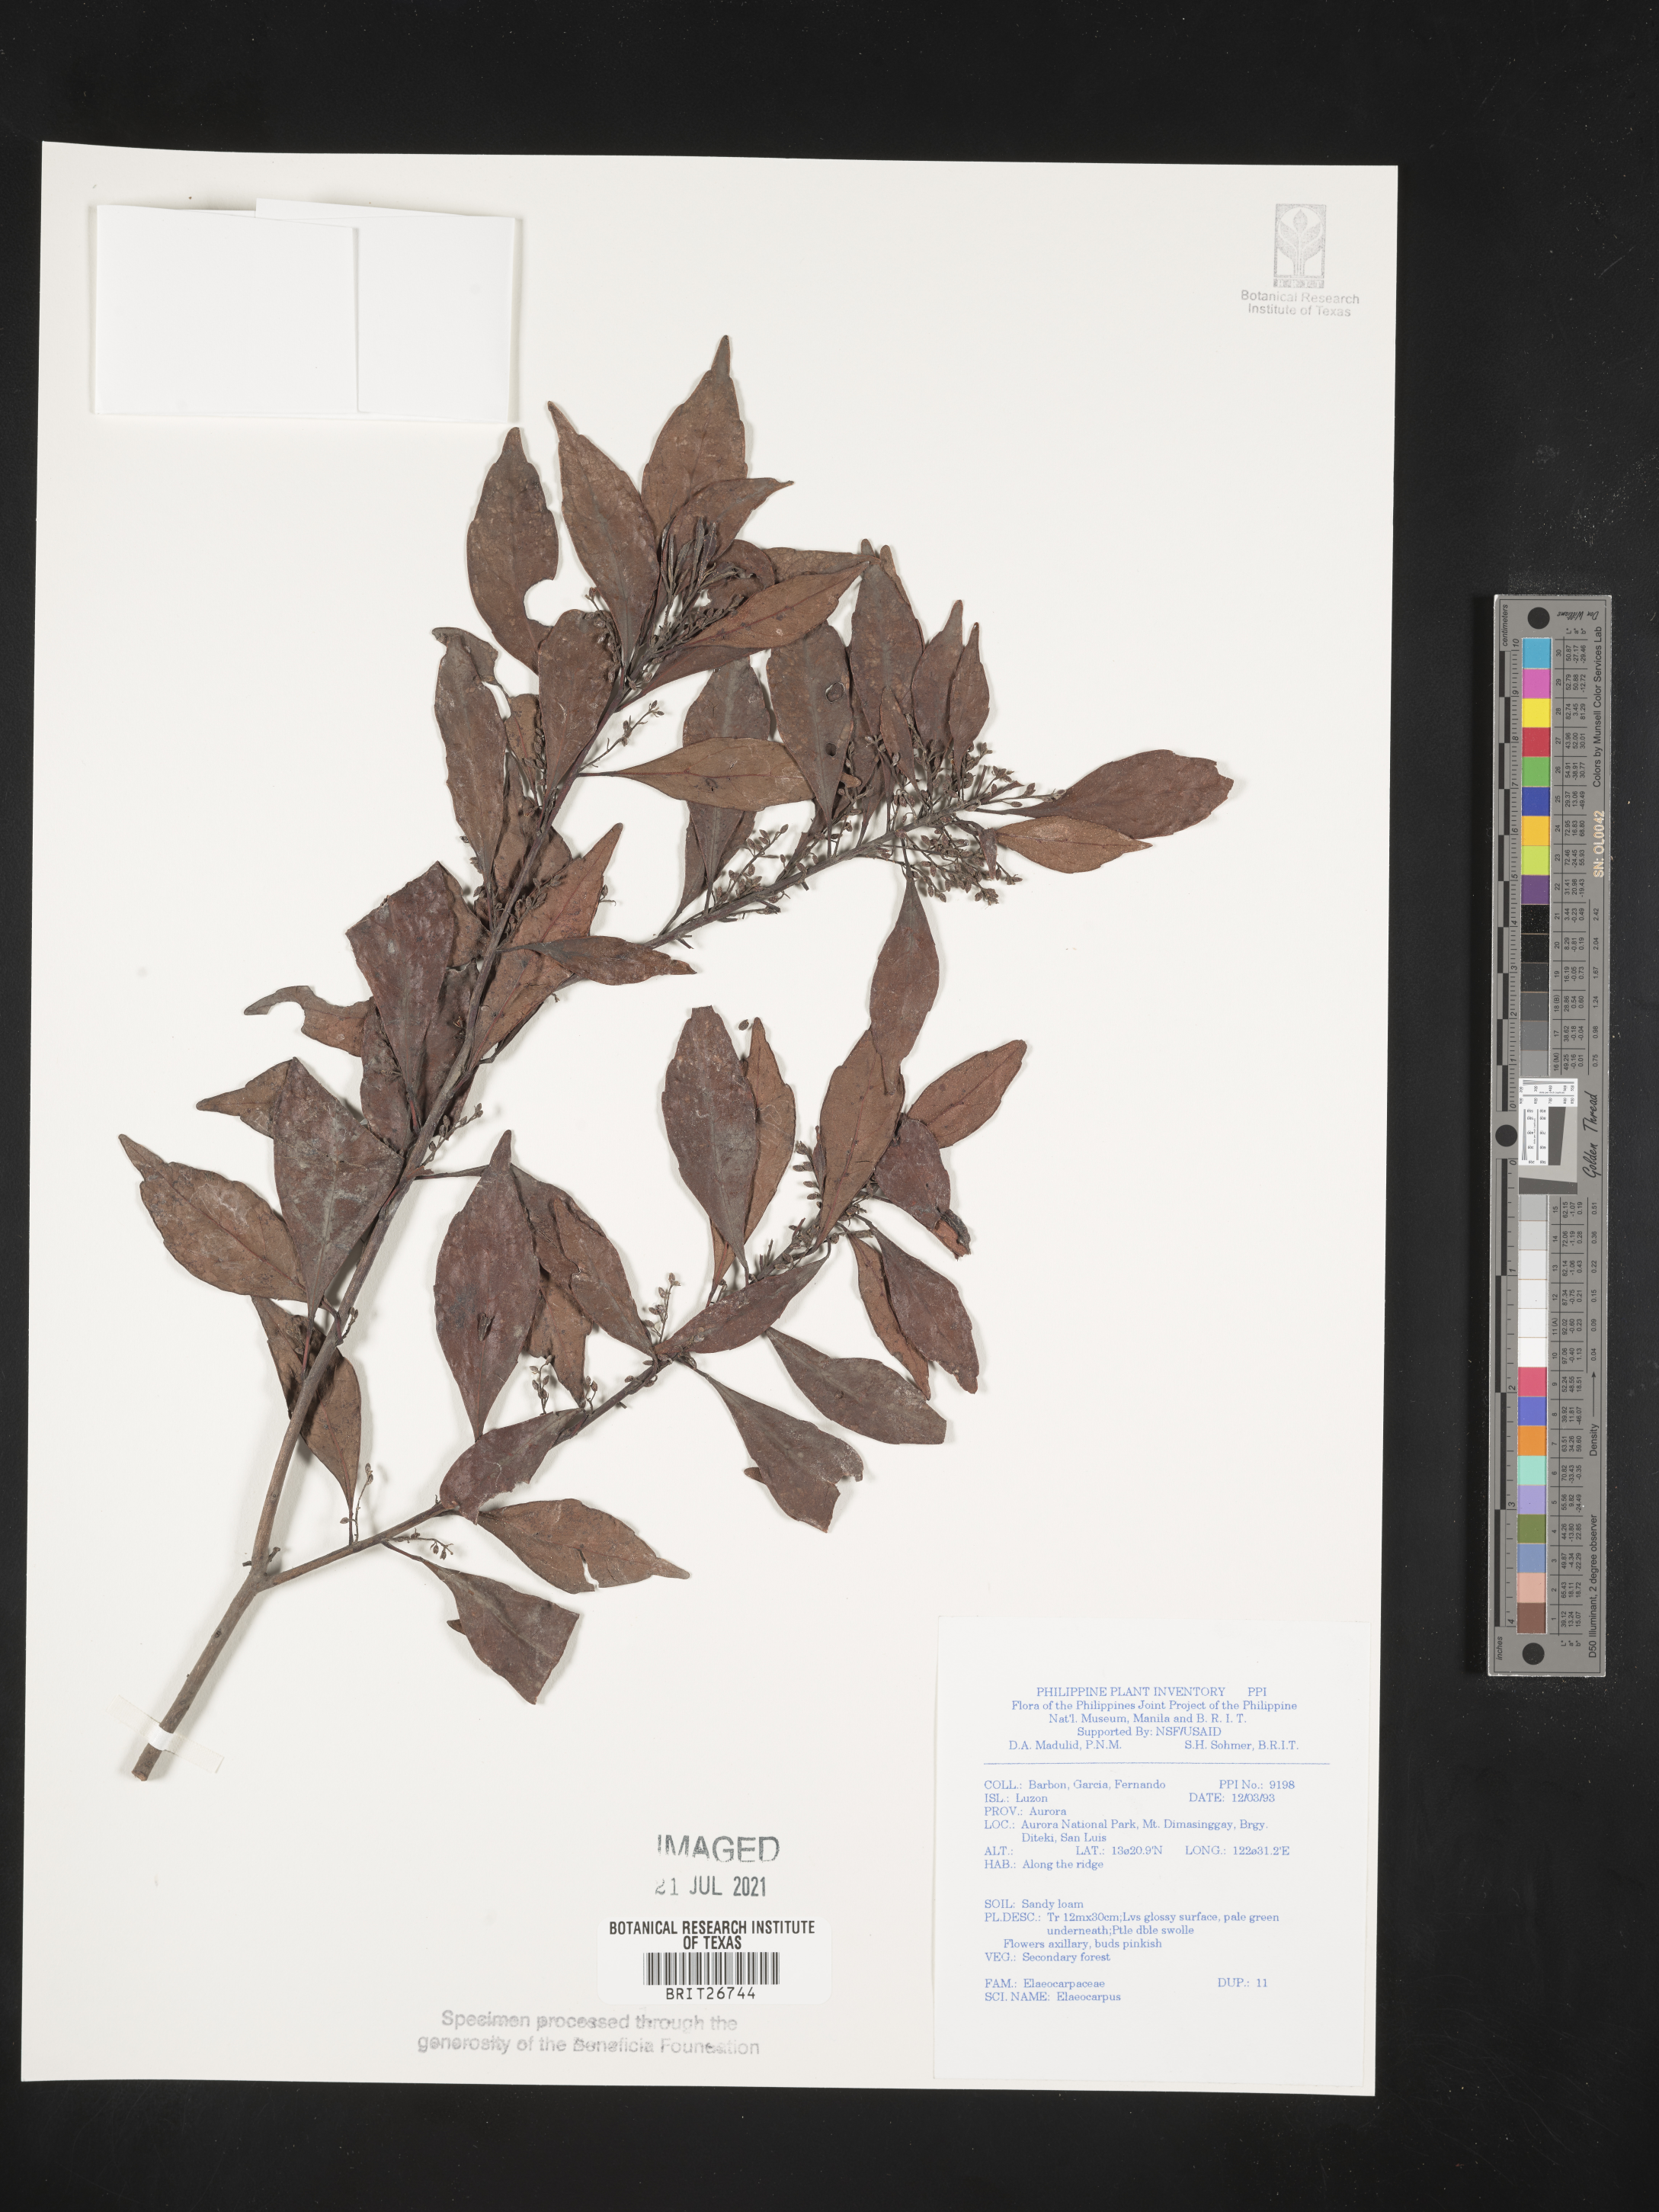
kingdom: Plantae
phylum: Tracheophyta
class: Magnoliopsida
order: Oxalidales
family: Elaeocarpaceae
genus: Elaeocarpus
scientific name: Elaeocarpus
